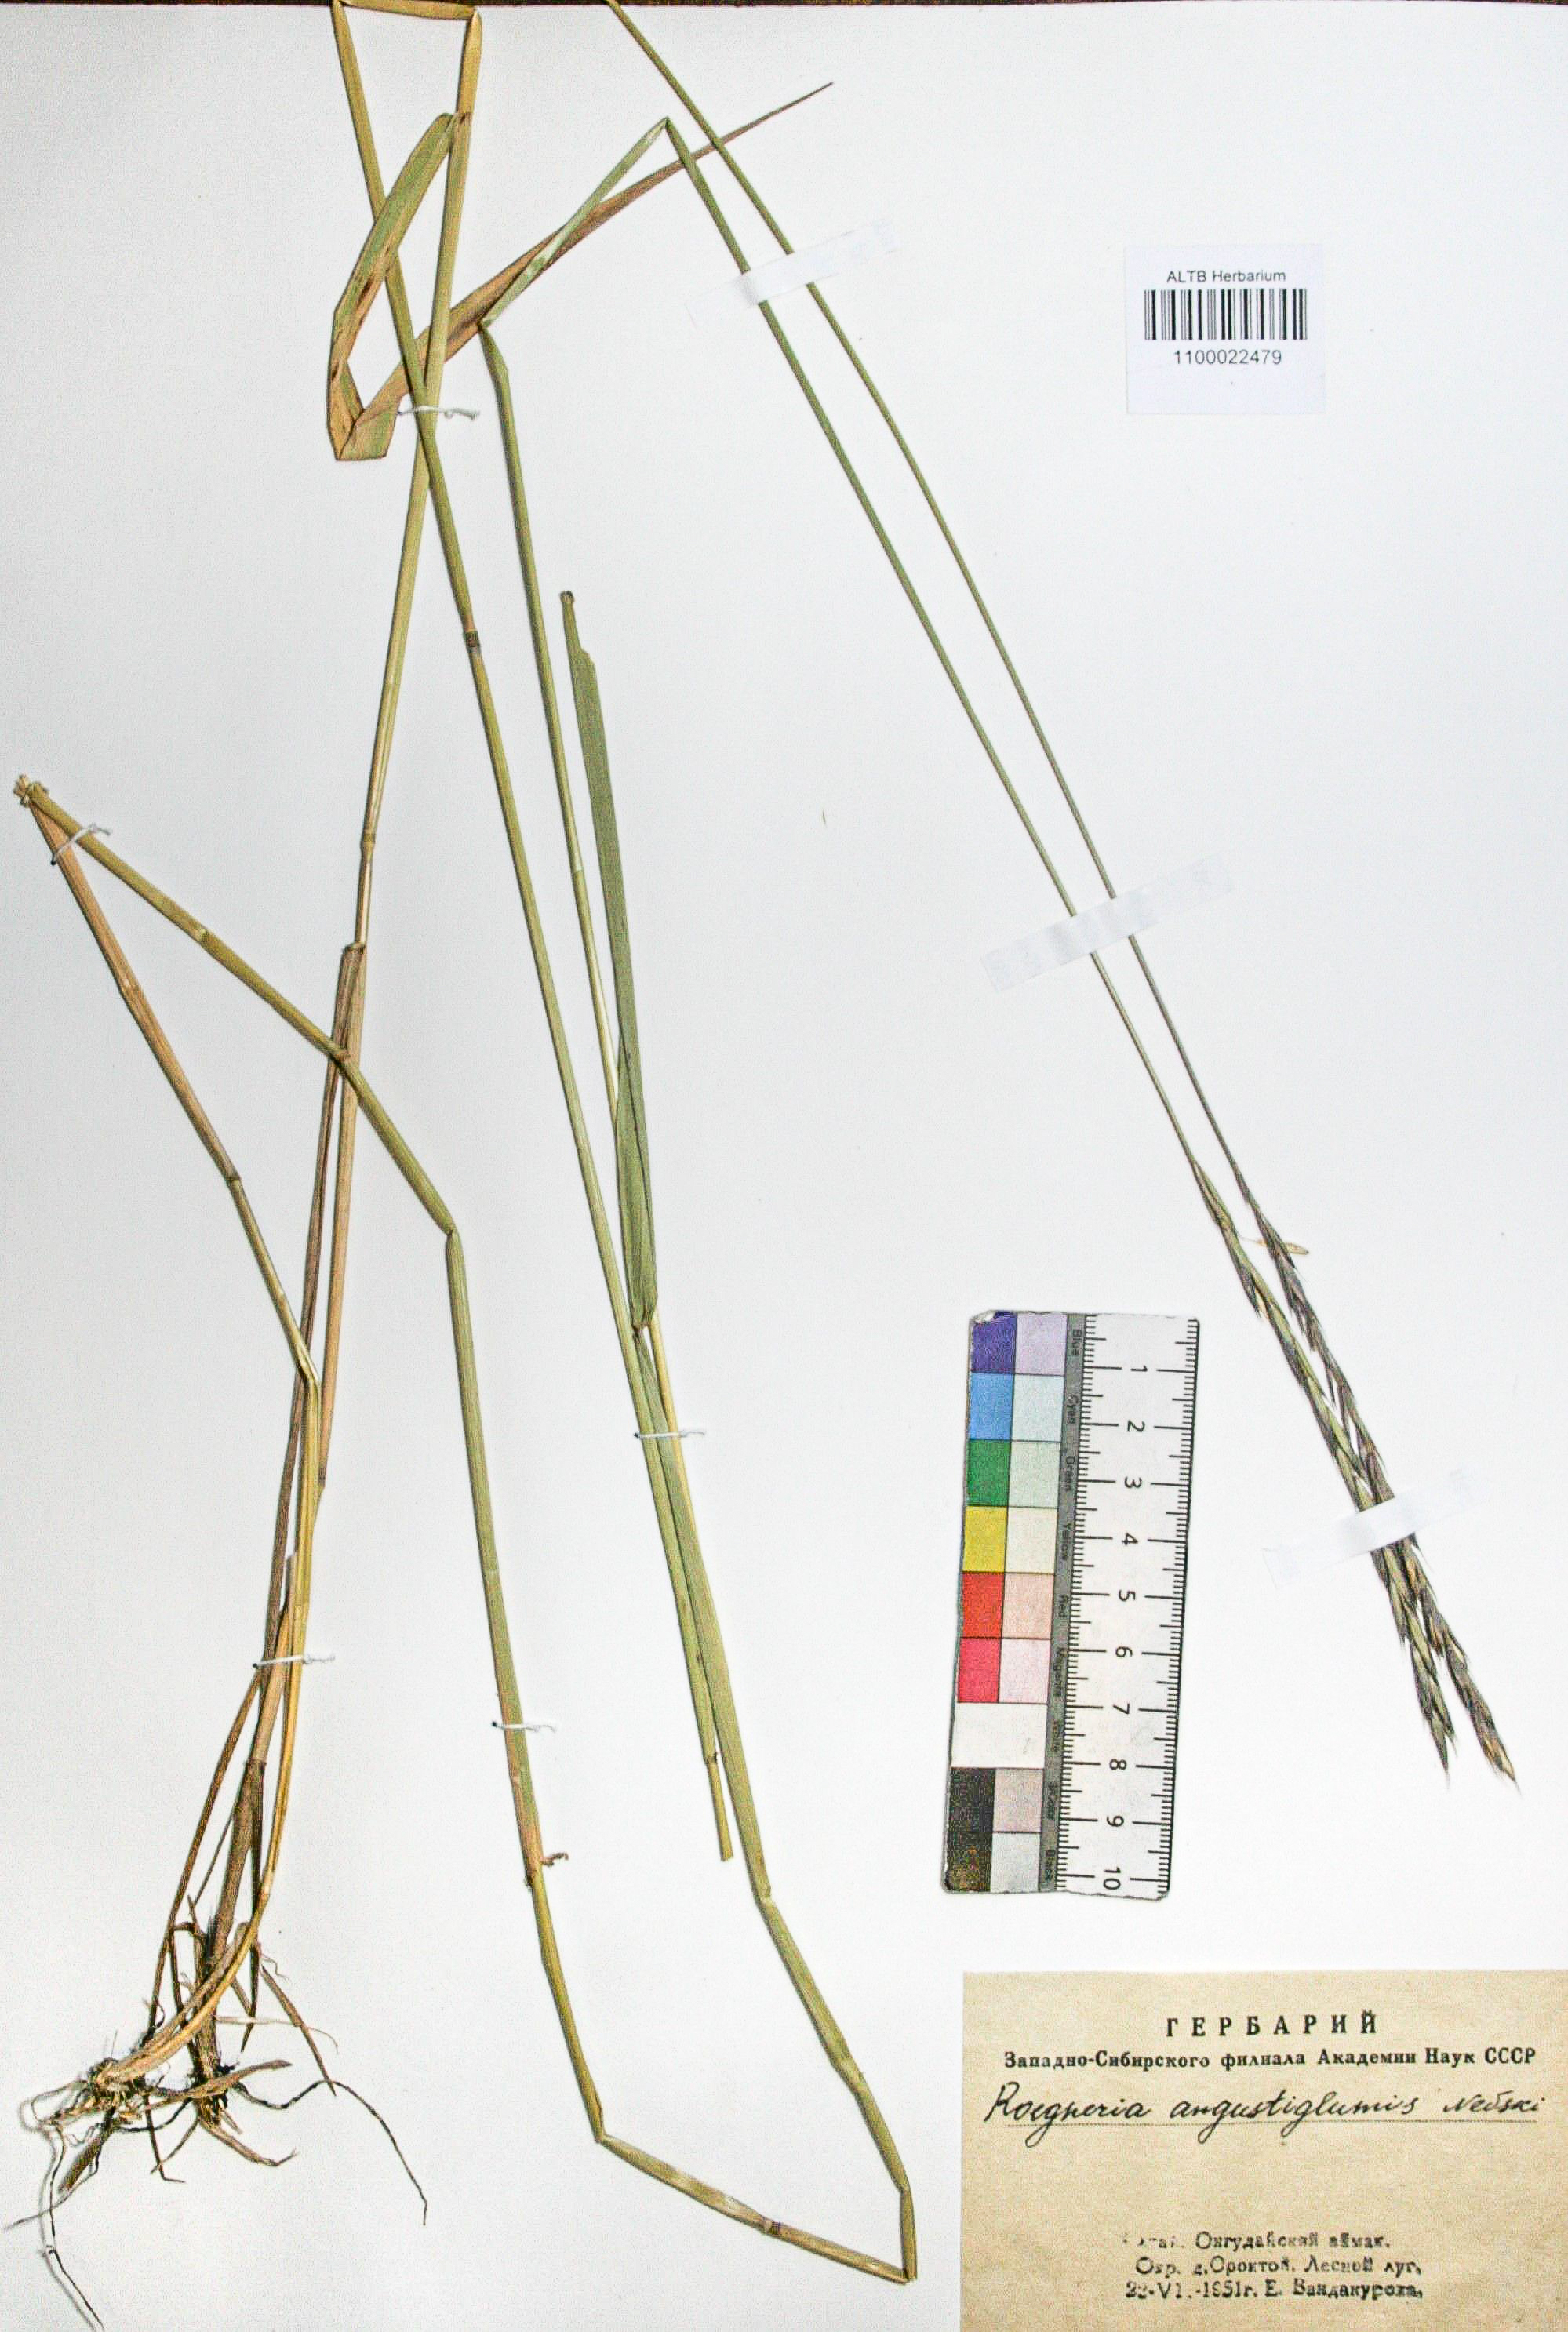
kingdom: Plantae
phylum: Tracheophyta
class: Liliopsida
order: Poales
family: Poaceae
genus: Elymus
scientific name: Elymus mutabilis
